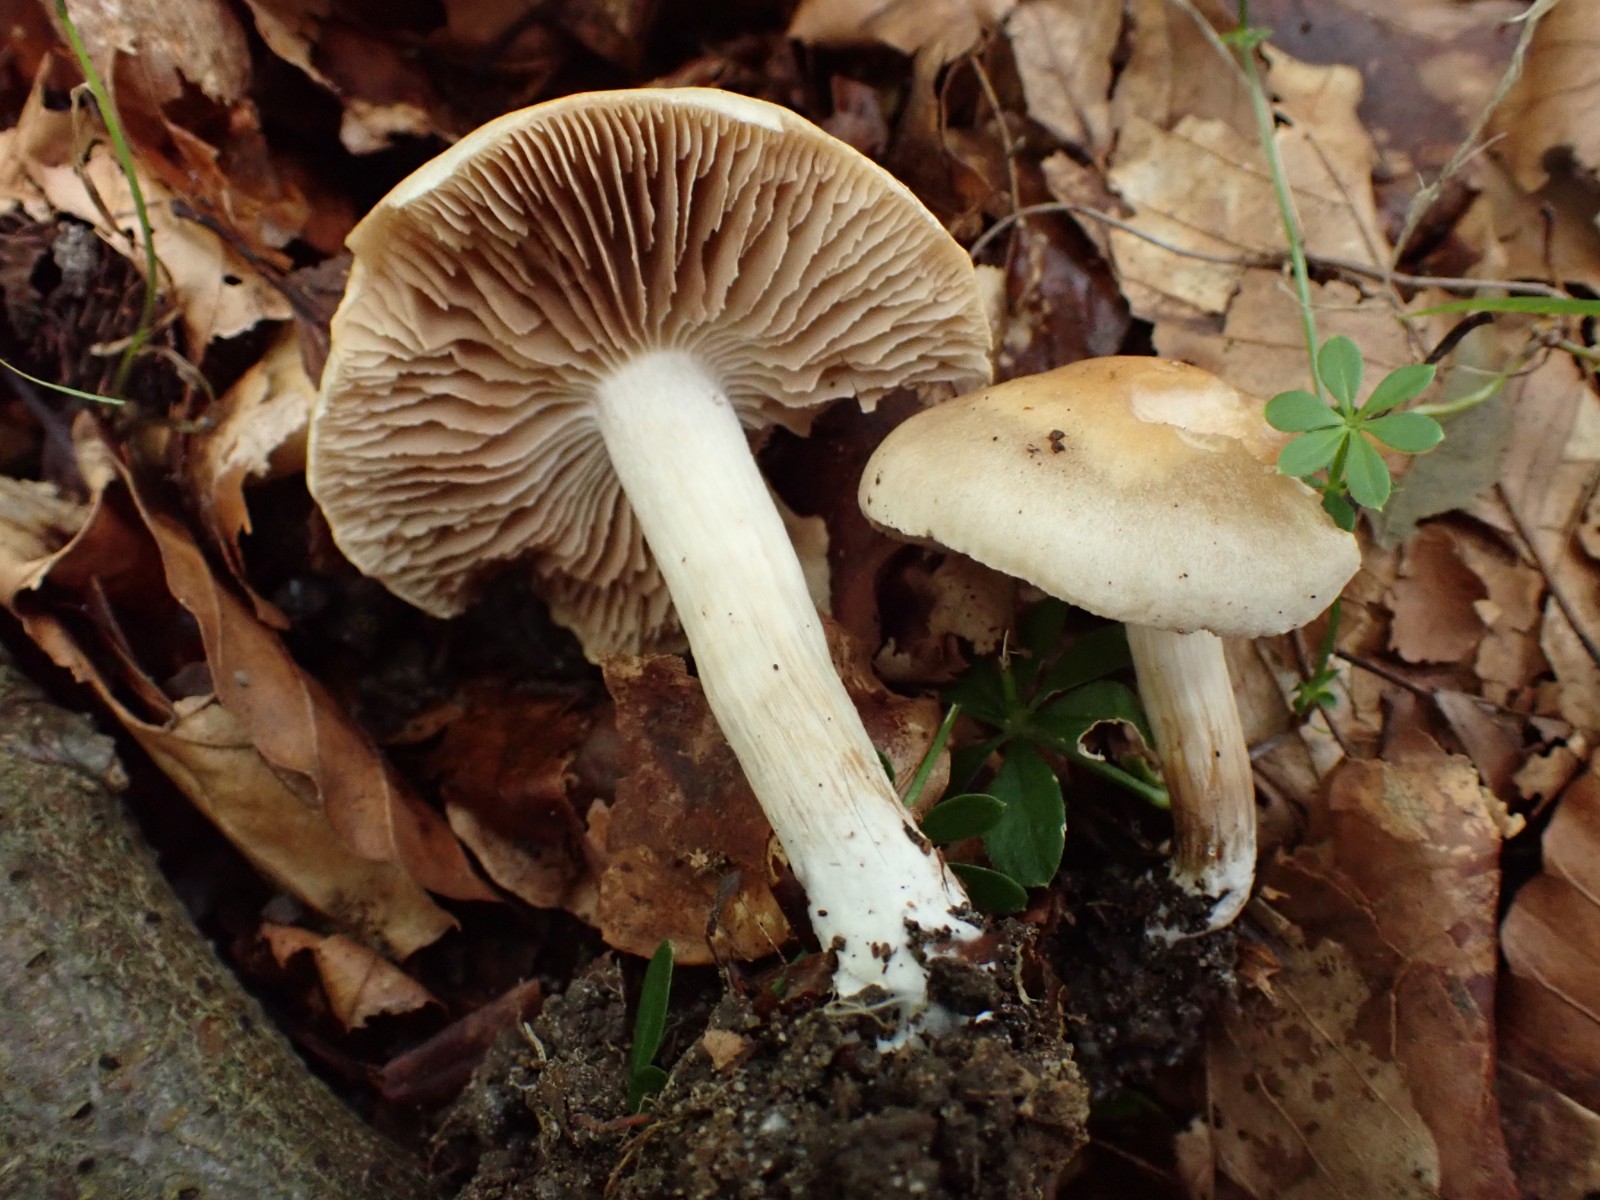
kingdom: Fungi
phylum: Basidiomycota
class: Agaricomycetes
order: Agaricales
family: Hymenogastraceae
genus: Hebeloma
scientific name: Hebeloma sacchariolens
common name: sødtduftende tåreblad
